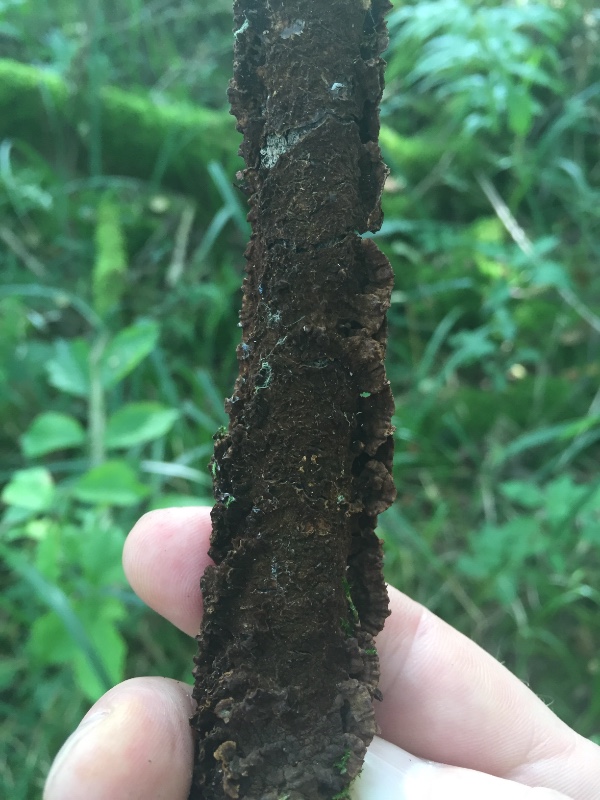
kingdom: Fungi
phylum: Basidiomycota
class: Agaricomycetes
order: Hymenochaetales
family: Hymenochaetaceae
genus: Hydnoporia
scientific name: Hydnoporia tabacina
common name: tobaksbrun ruslædersvamp
